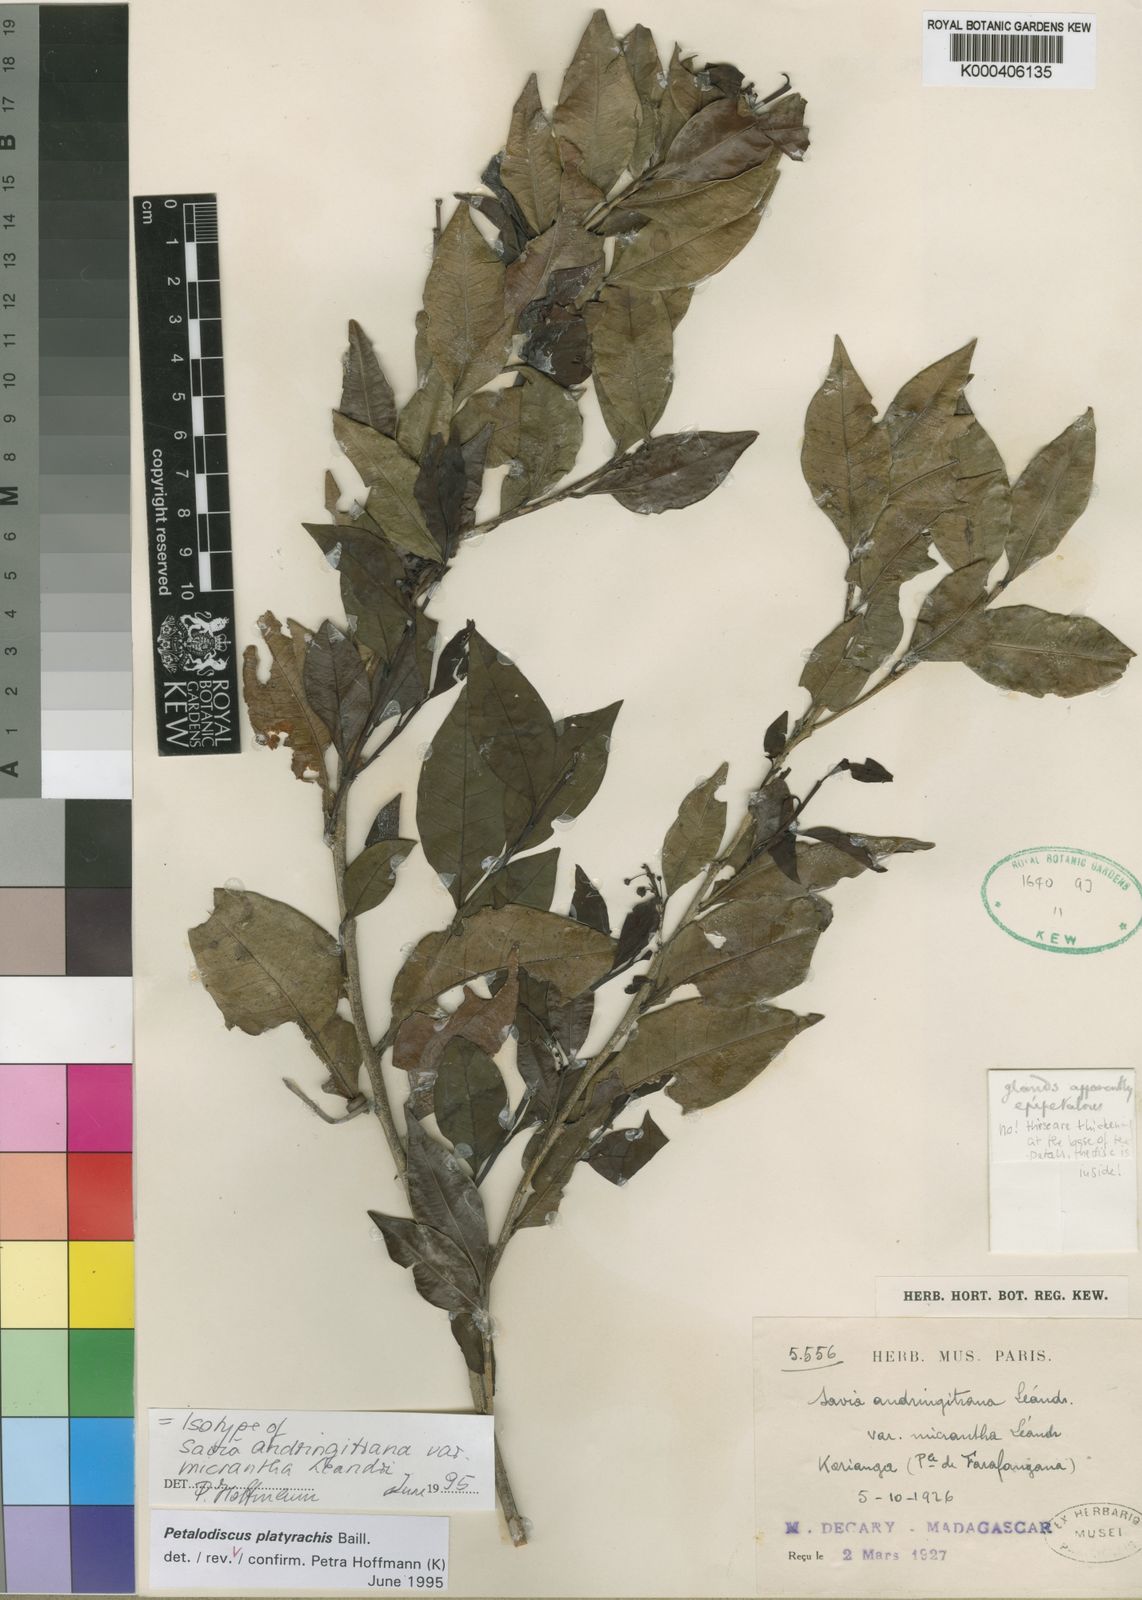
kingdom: Plantae
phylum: Tracheophyta
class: Magnoliopsida
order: Malpighiales
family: Phyllanthaceae
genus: Wielandia
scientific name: Wielandia
